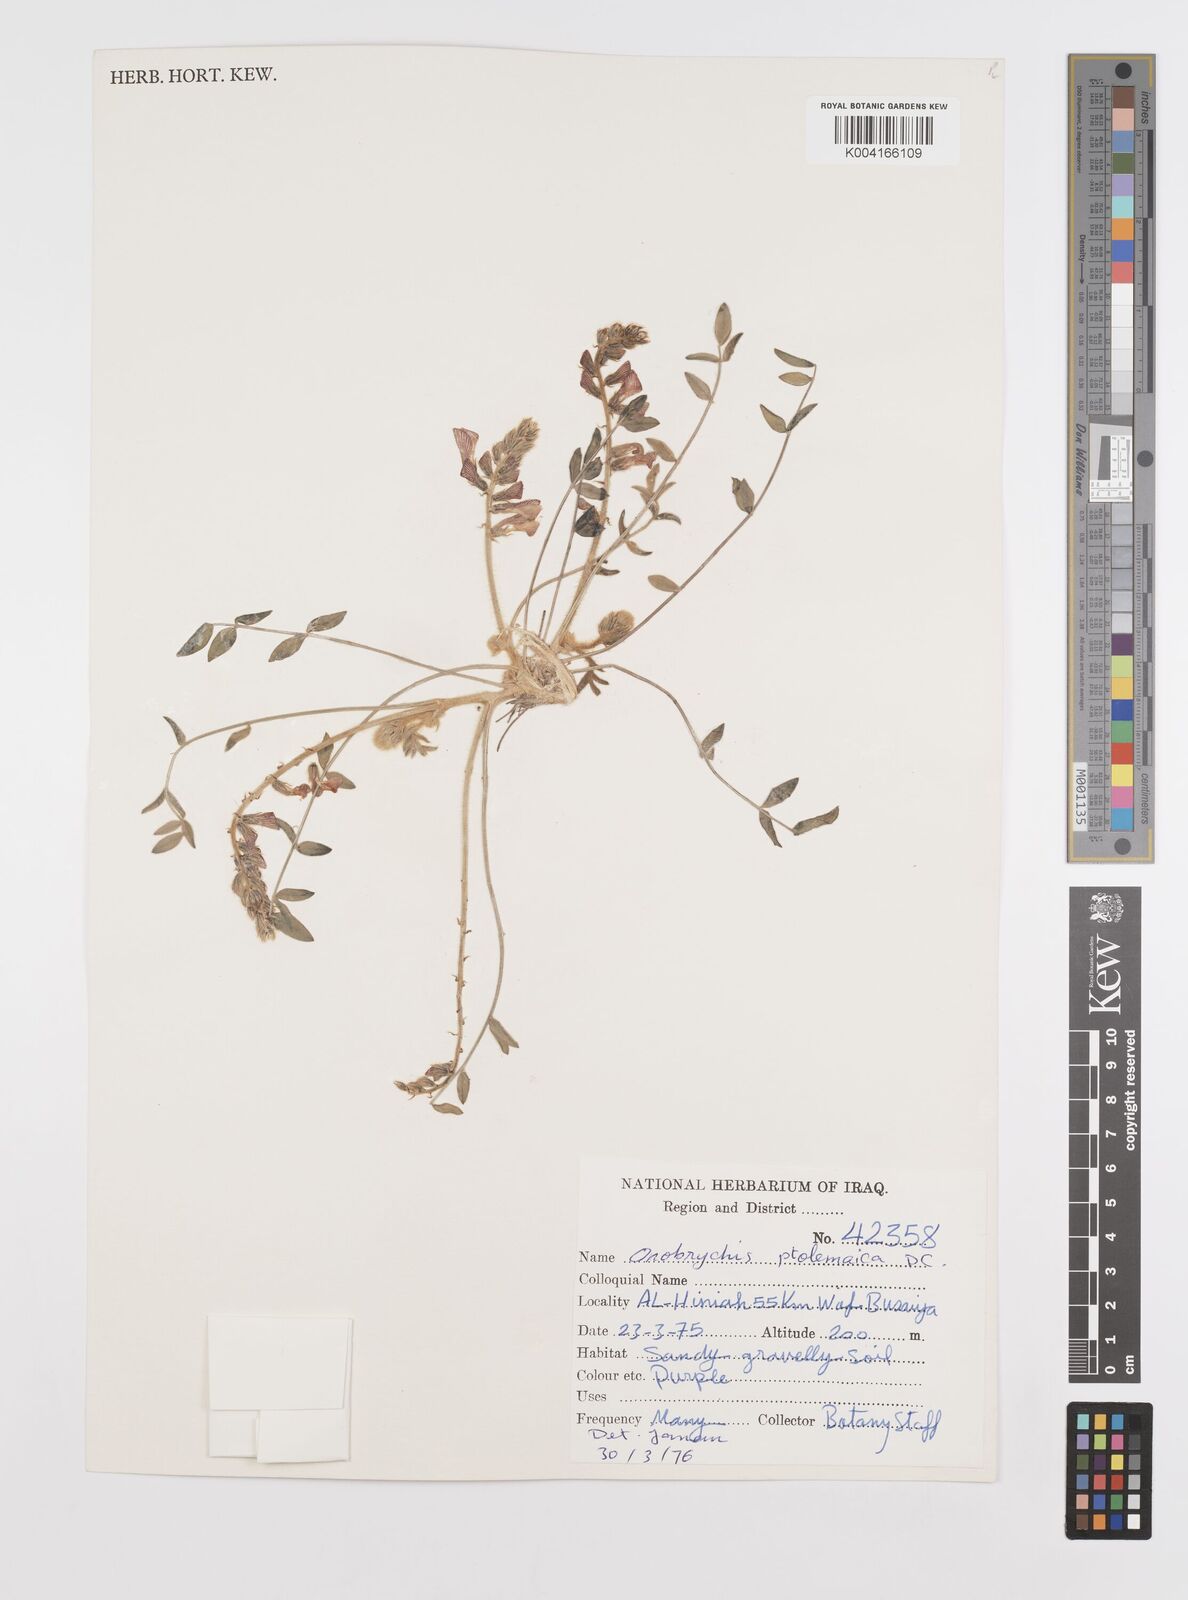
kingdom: Plantae
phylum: Tracheophyta
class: Magnoliopsida
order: Fabales
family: Fabaceae
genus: Onobrychis
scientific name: Onobrychis ptolemaica
